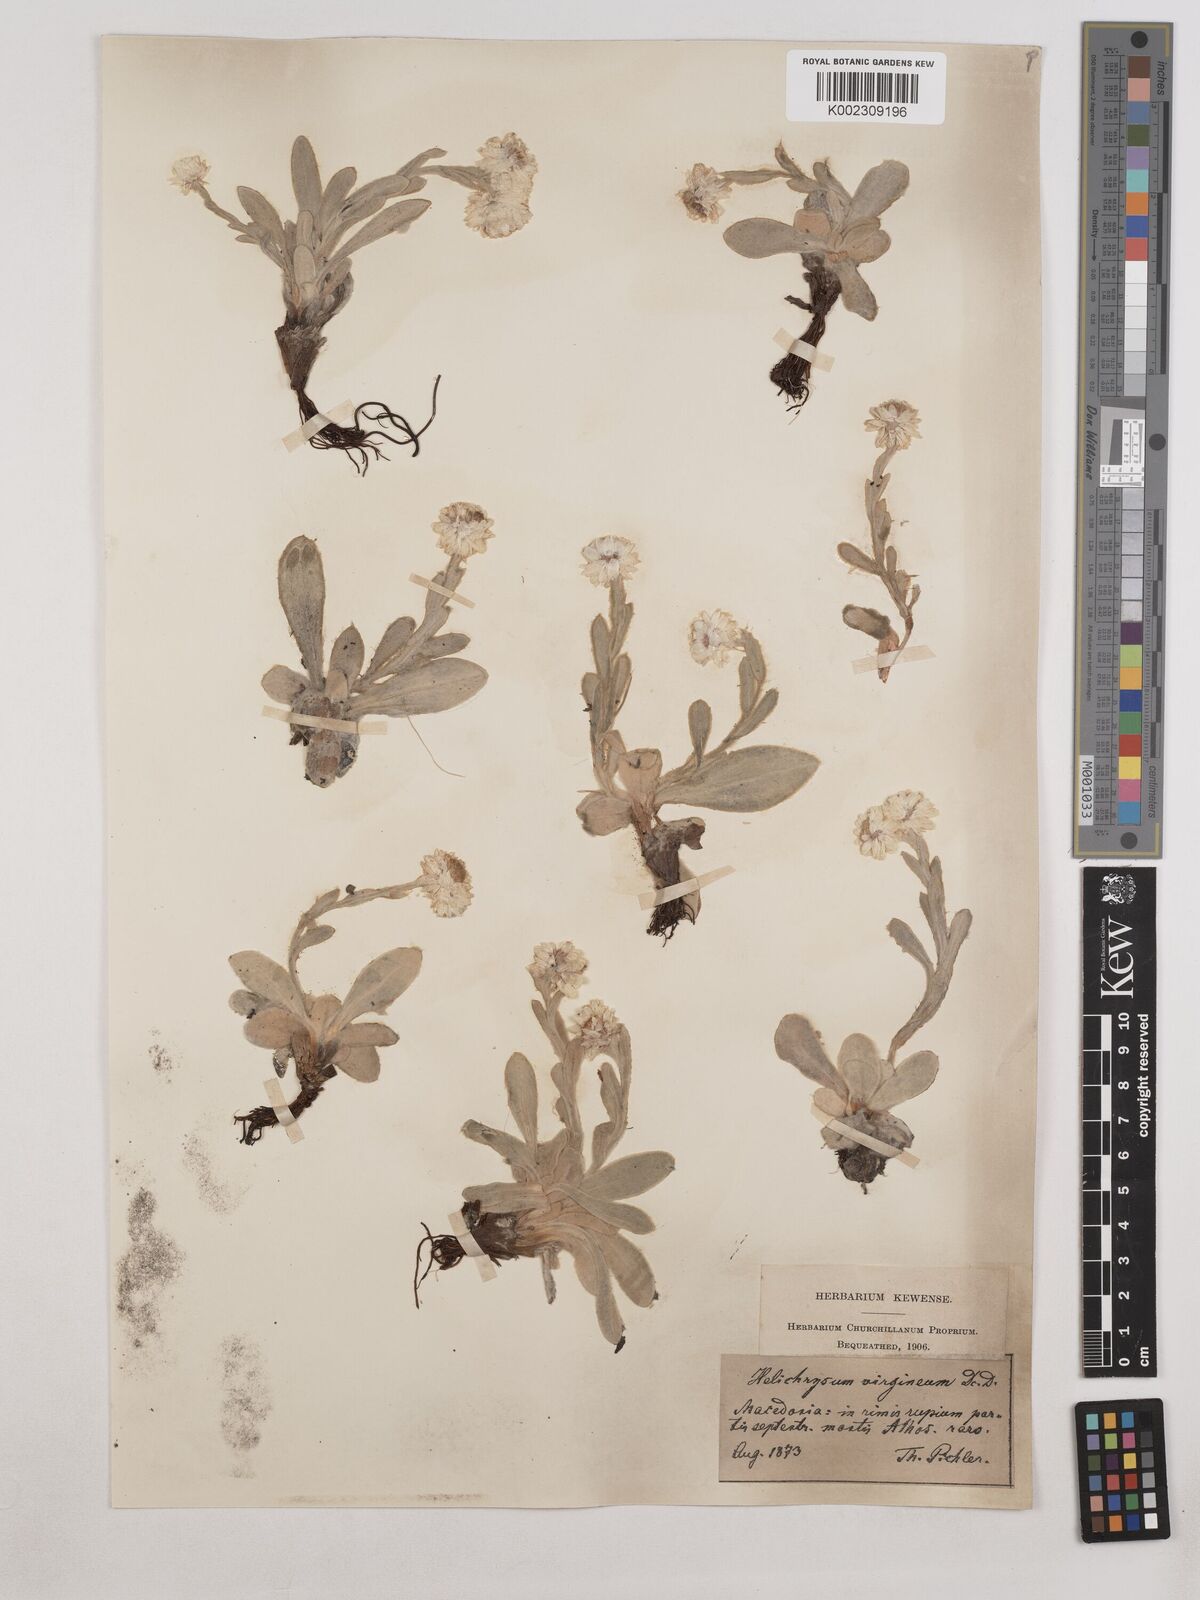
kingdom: Plantae
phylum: Tracheophyta
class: Magnoliopsida
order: Asterales
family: Asteraceae
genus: Helichrysum
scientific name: Helichrysum sibthorpii
